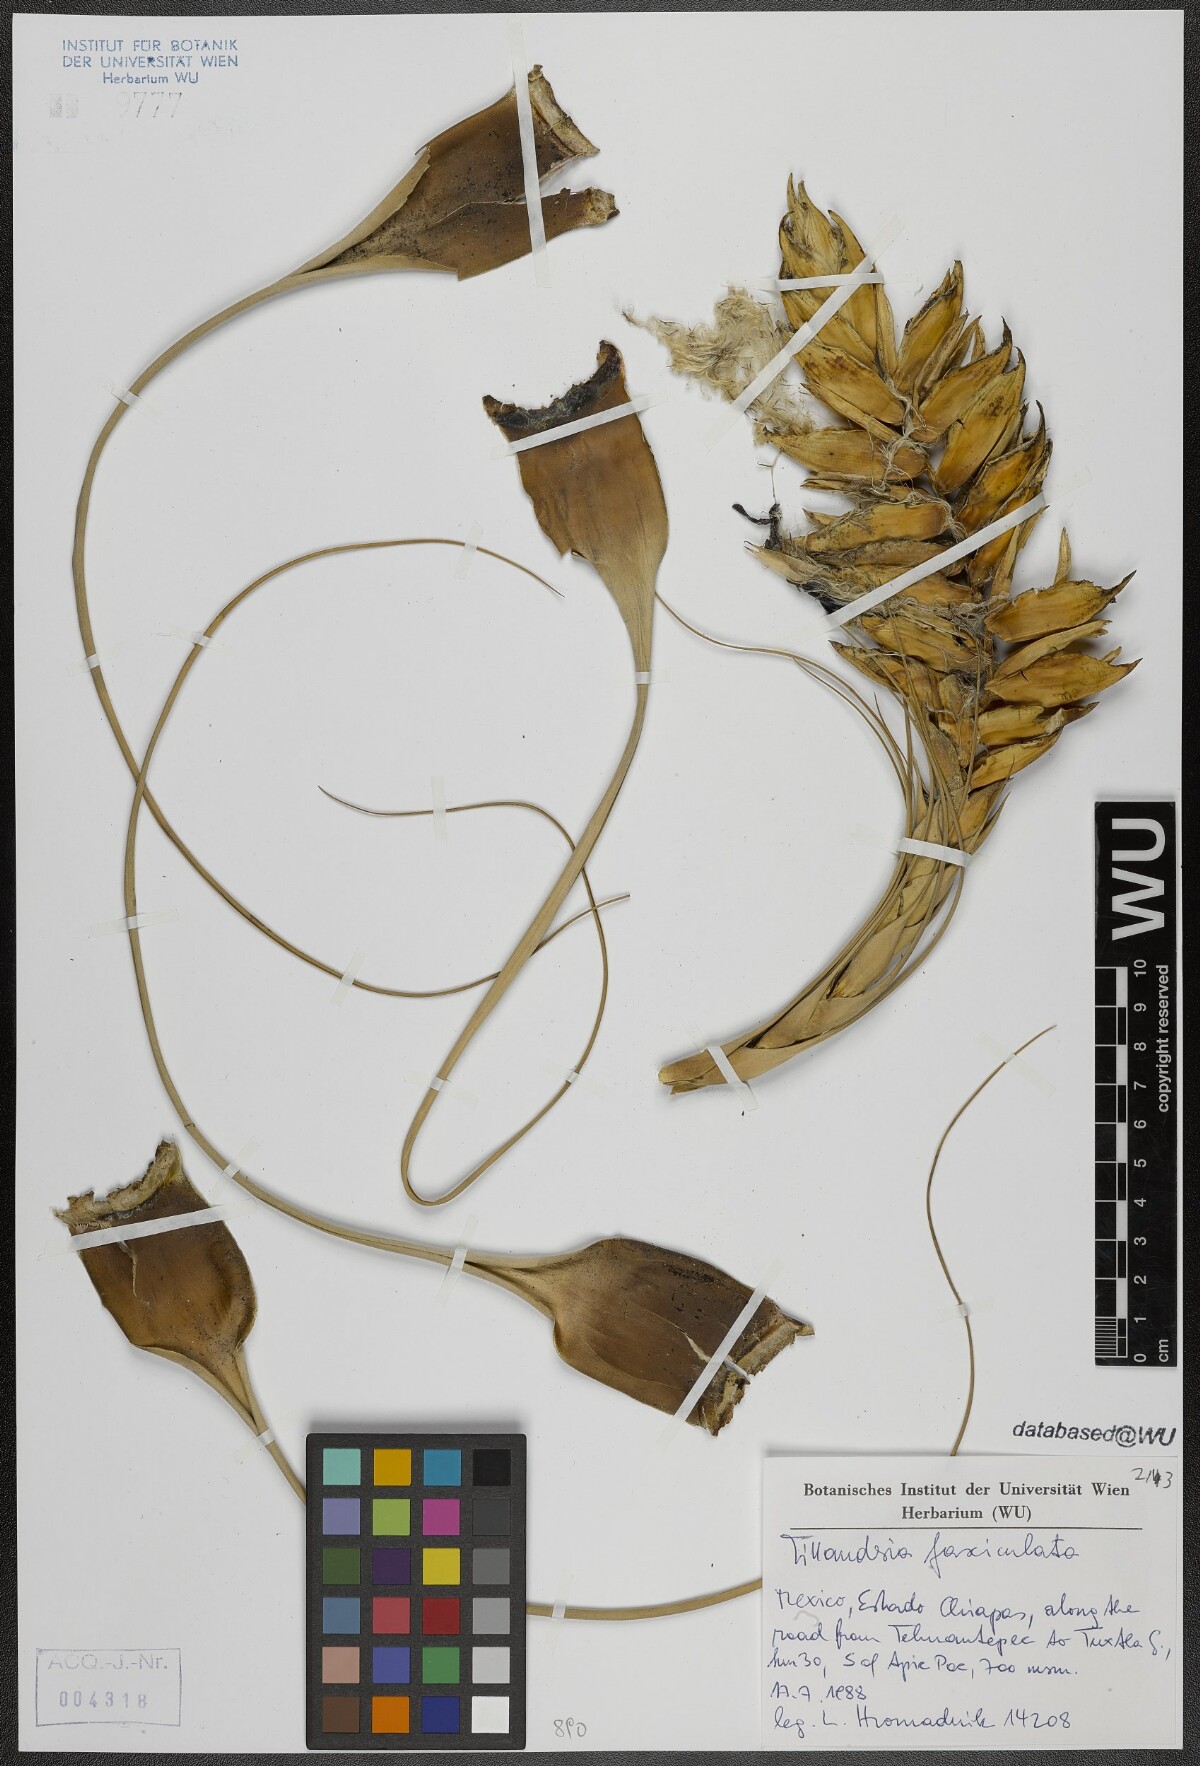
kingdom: Plantae
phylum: Tracheophyta
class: Liliopsida
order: Poales
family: Bromeliaceae
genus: Tillandsia
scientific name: Tillandsia fasciculata
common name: Giant airplant
